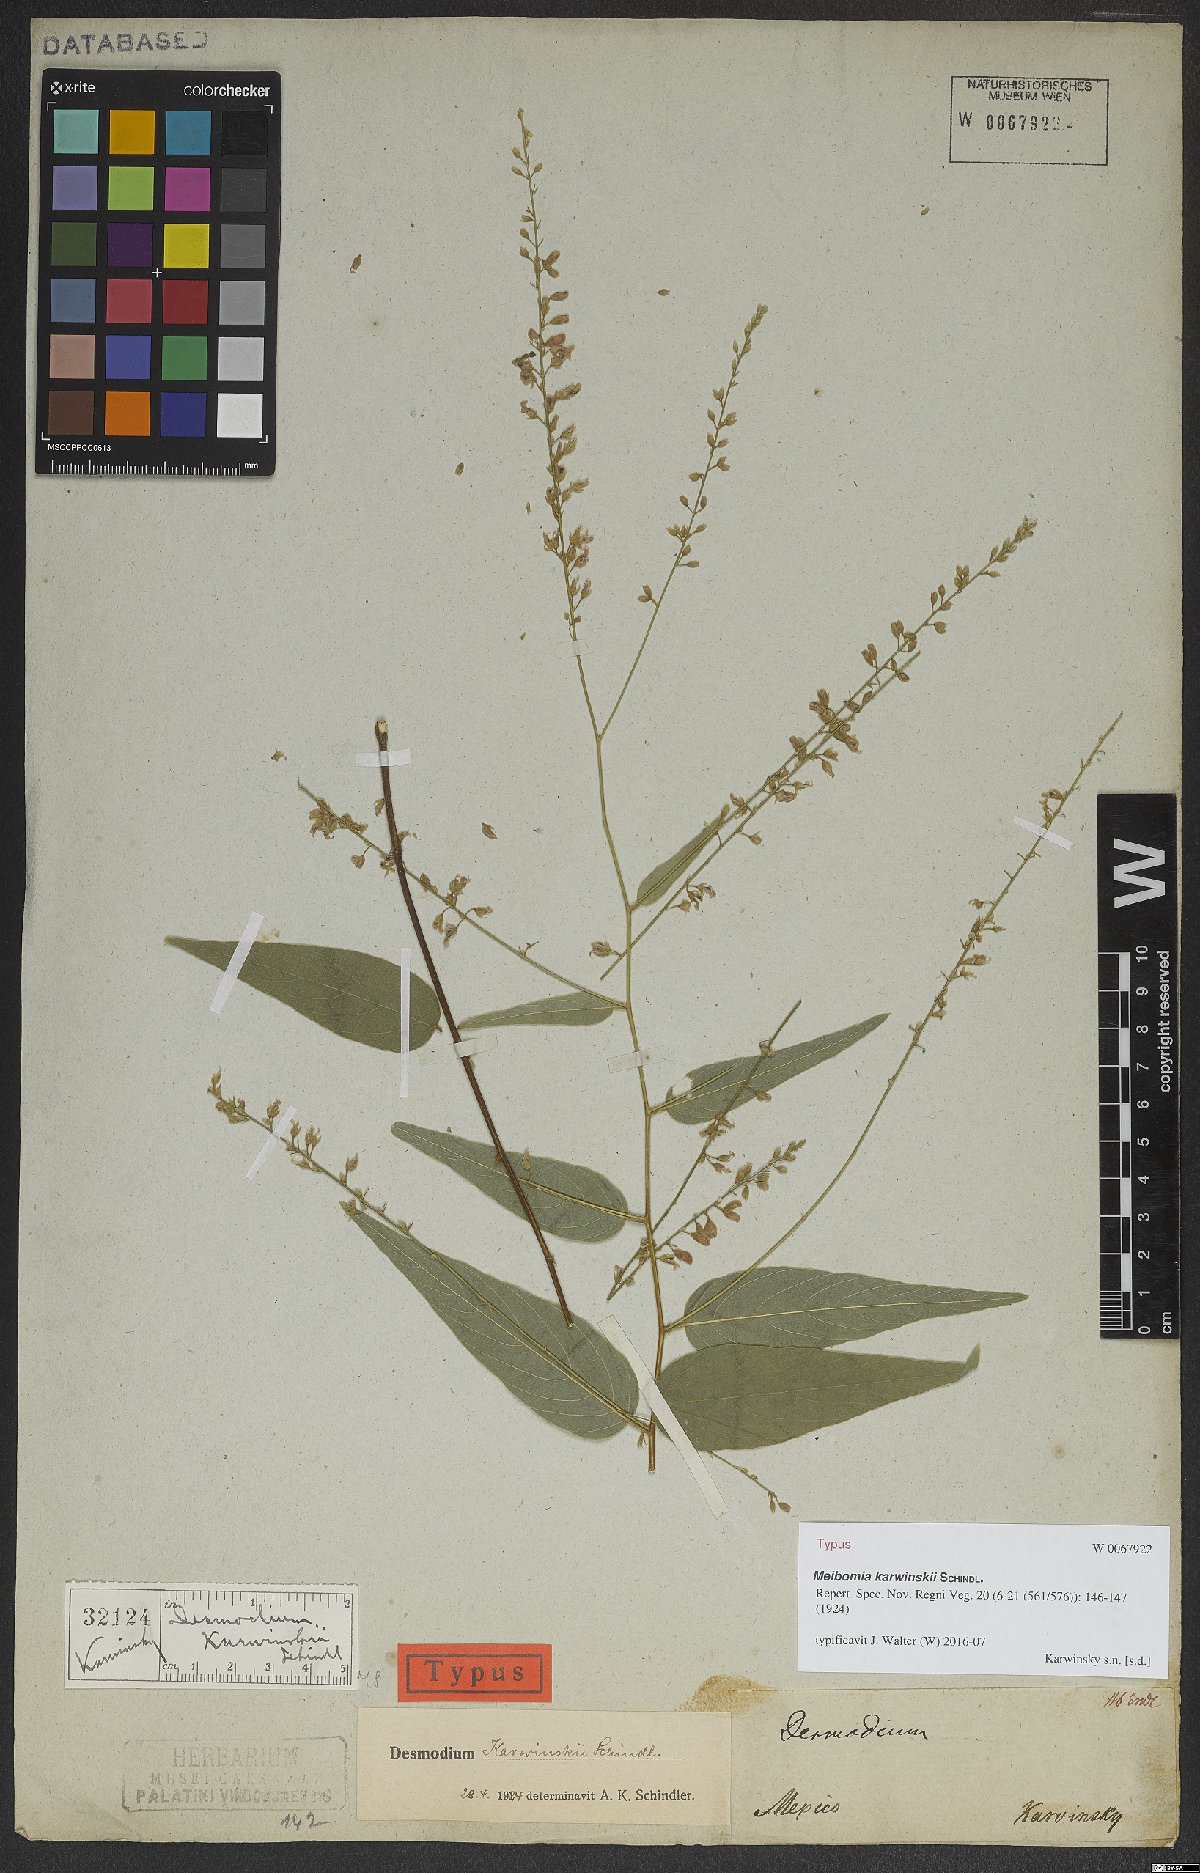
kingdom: Plantae
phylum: Tracheophyta
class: Magnoliopsida
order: Fabales
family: Fabaceae
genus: Desmodium
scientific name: Desmodium karwinskii
